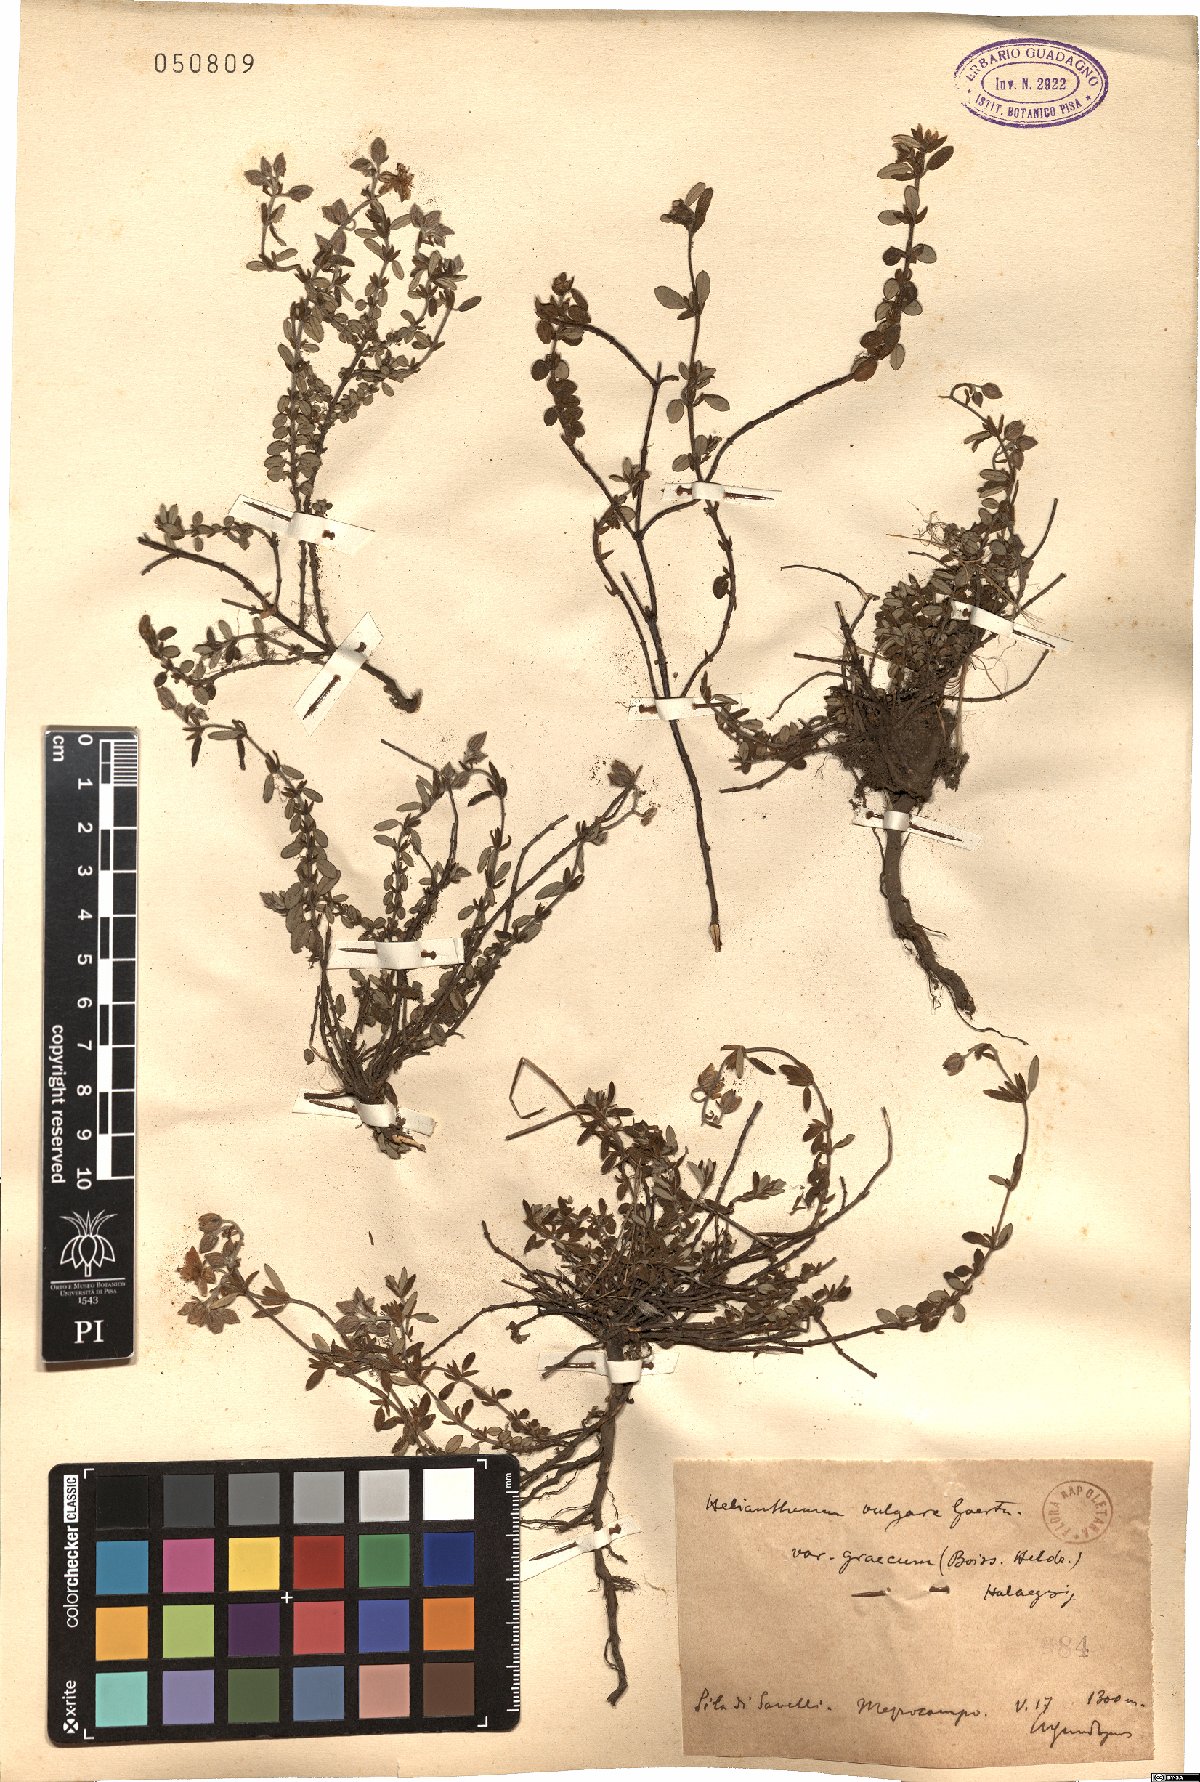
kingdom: Plantae
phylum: Tracheophyta
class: Magnoliopsida
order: Malvales
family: Cistaceae
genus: Helianthemum
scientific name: Helianthemum vulgare
